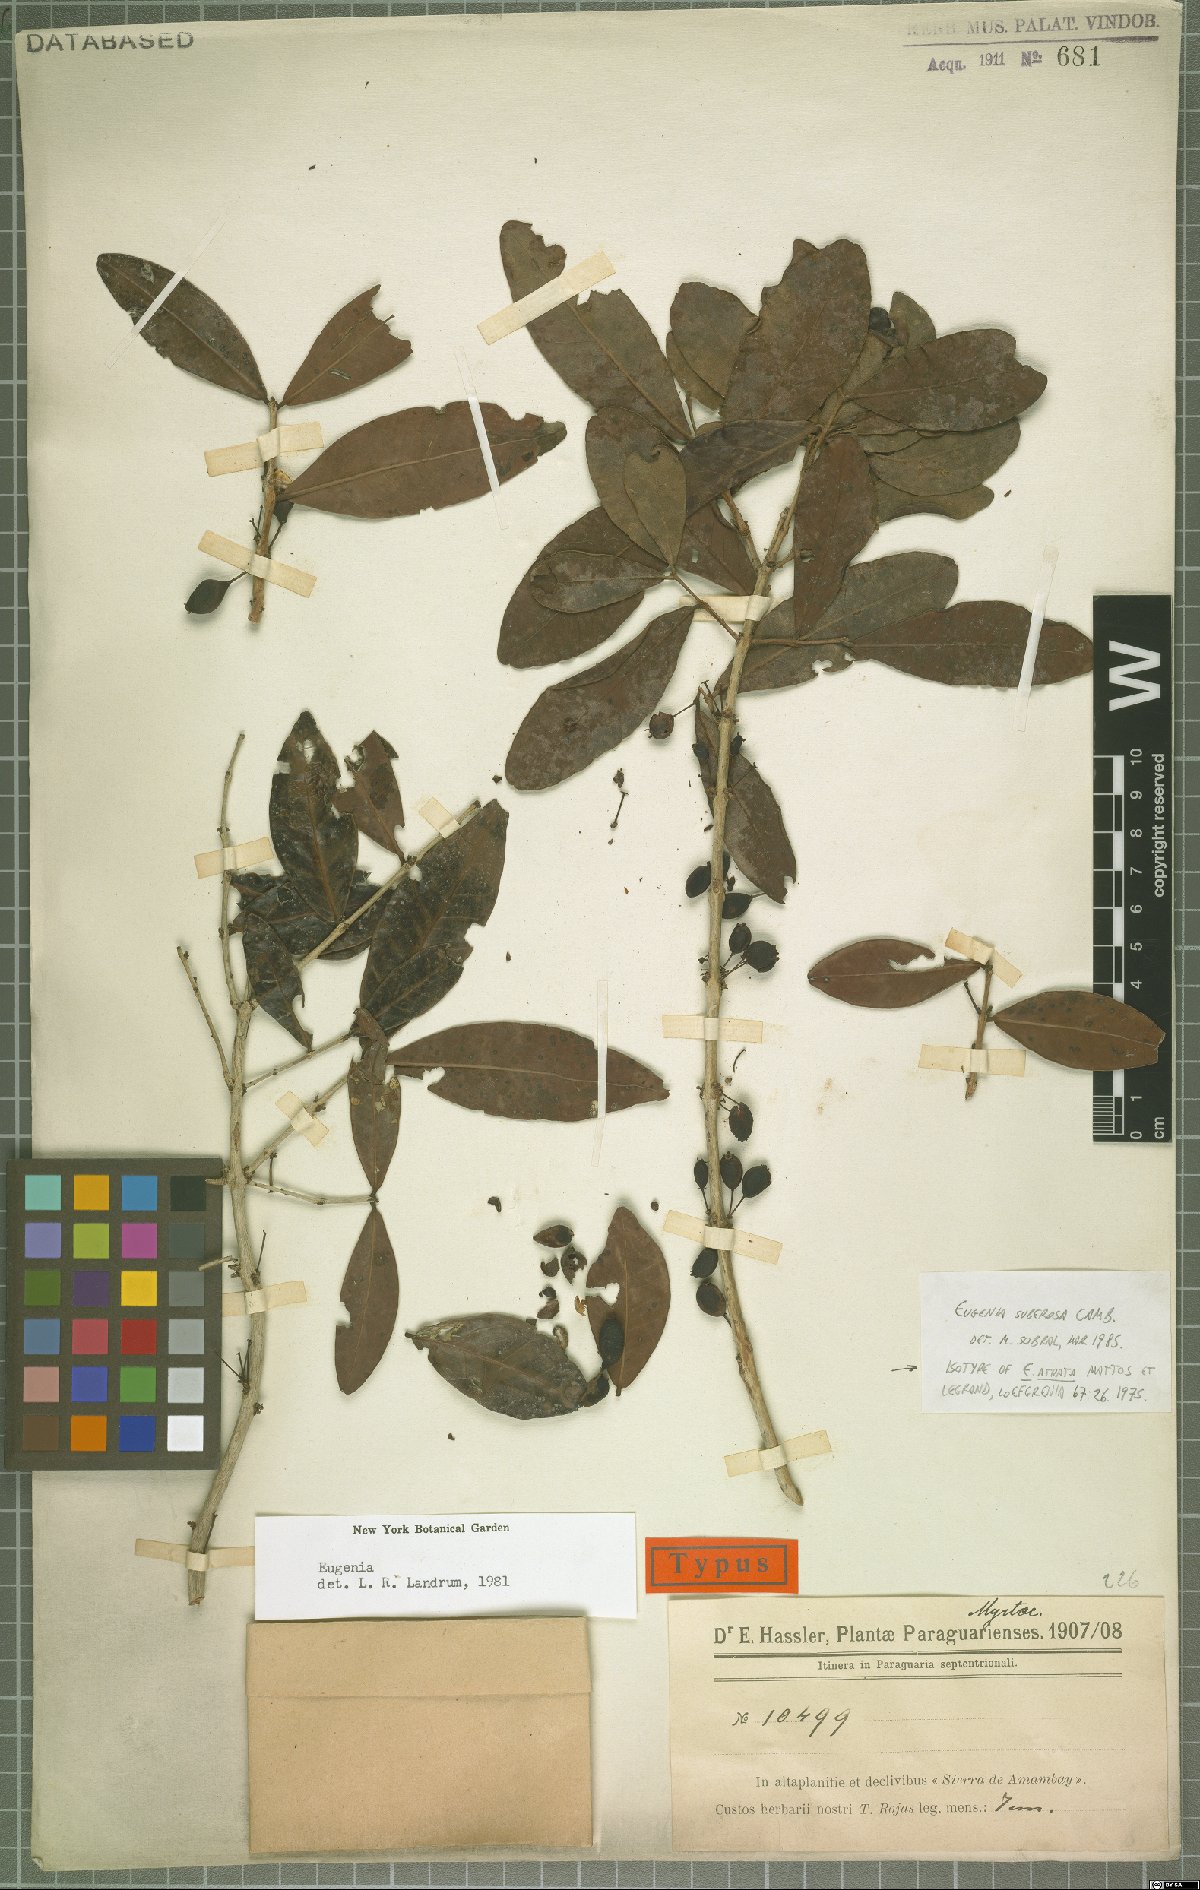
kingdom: Plantae
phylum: Tracheophyta
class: Magnoliopsida
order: Myrtales
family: Myrtaceae
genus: Eugenia
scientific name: Eugenia suberosa
